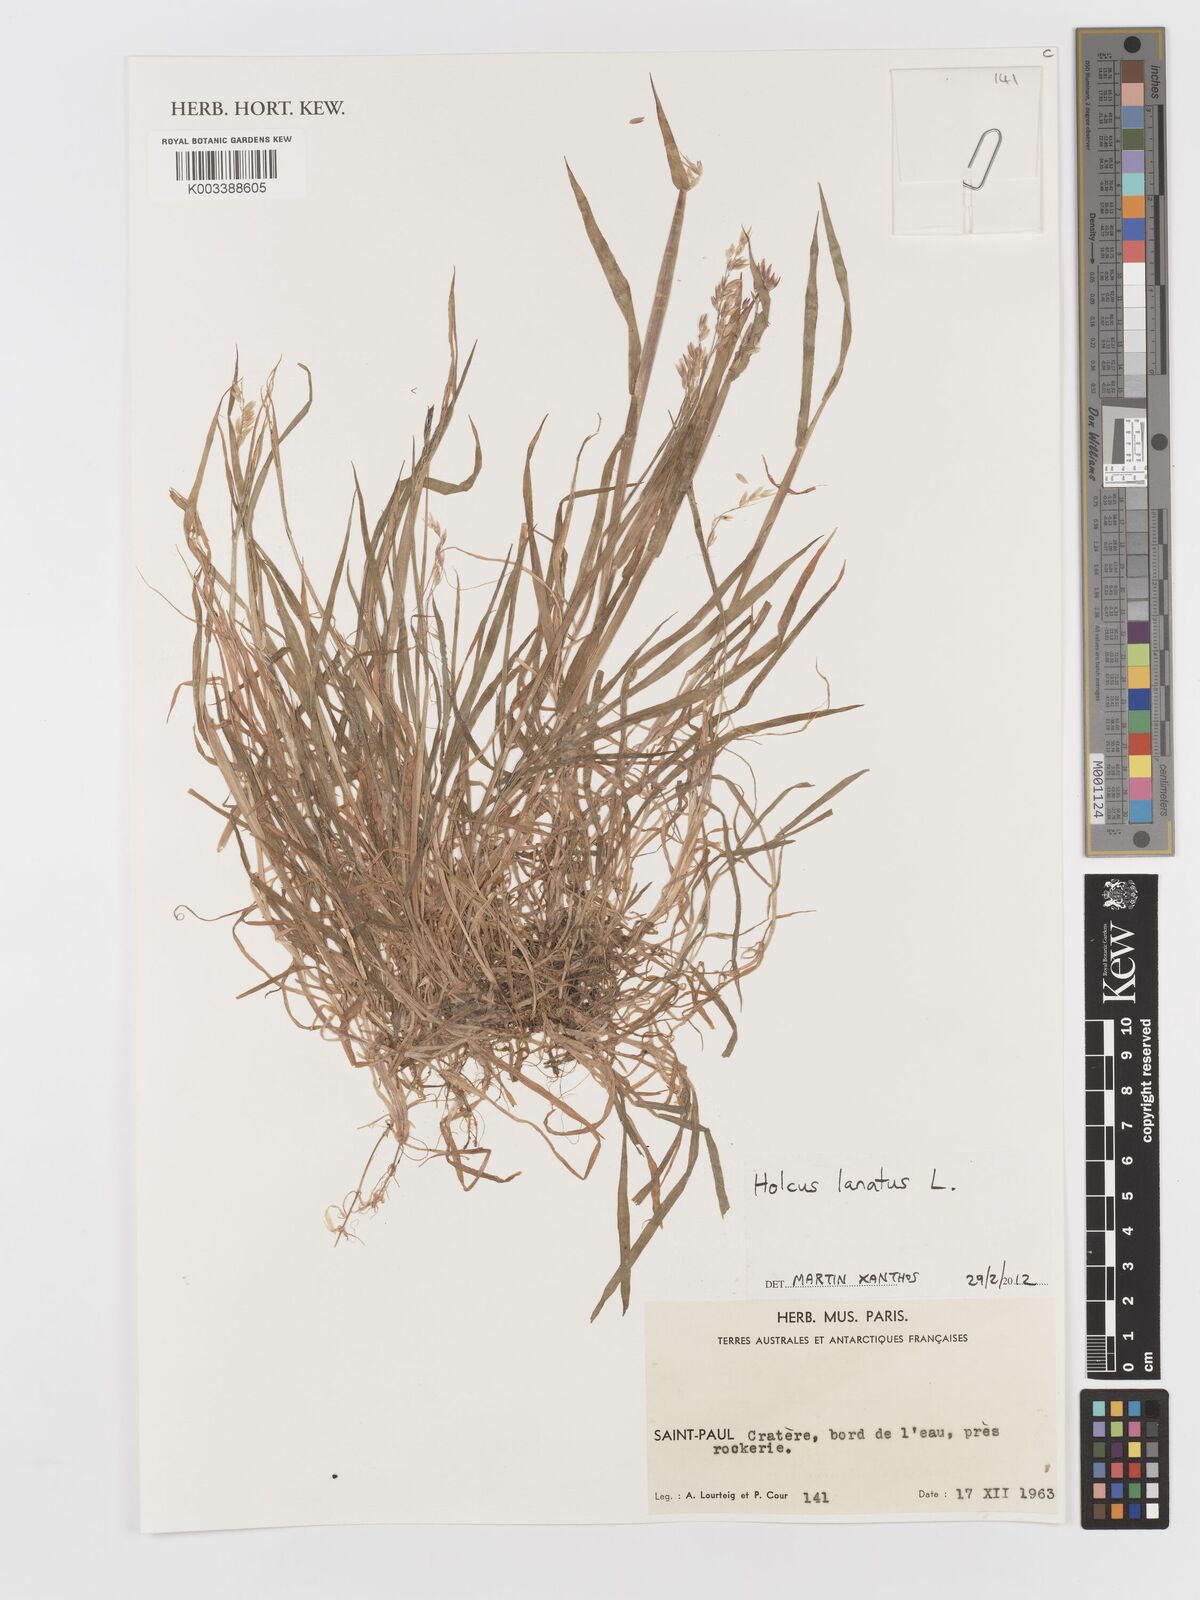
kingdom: Plantae
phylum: Tracheophyta
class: Liliopsida
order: Poales
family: Poaceae
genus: Holcus
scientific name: Holcus lanatus
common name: Yorkshire-fog
